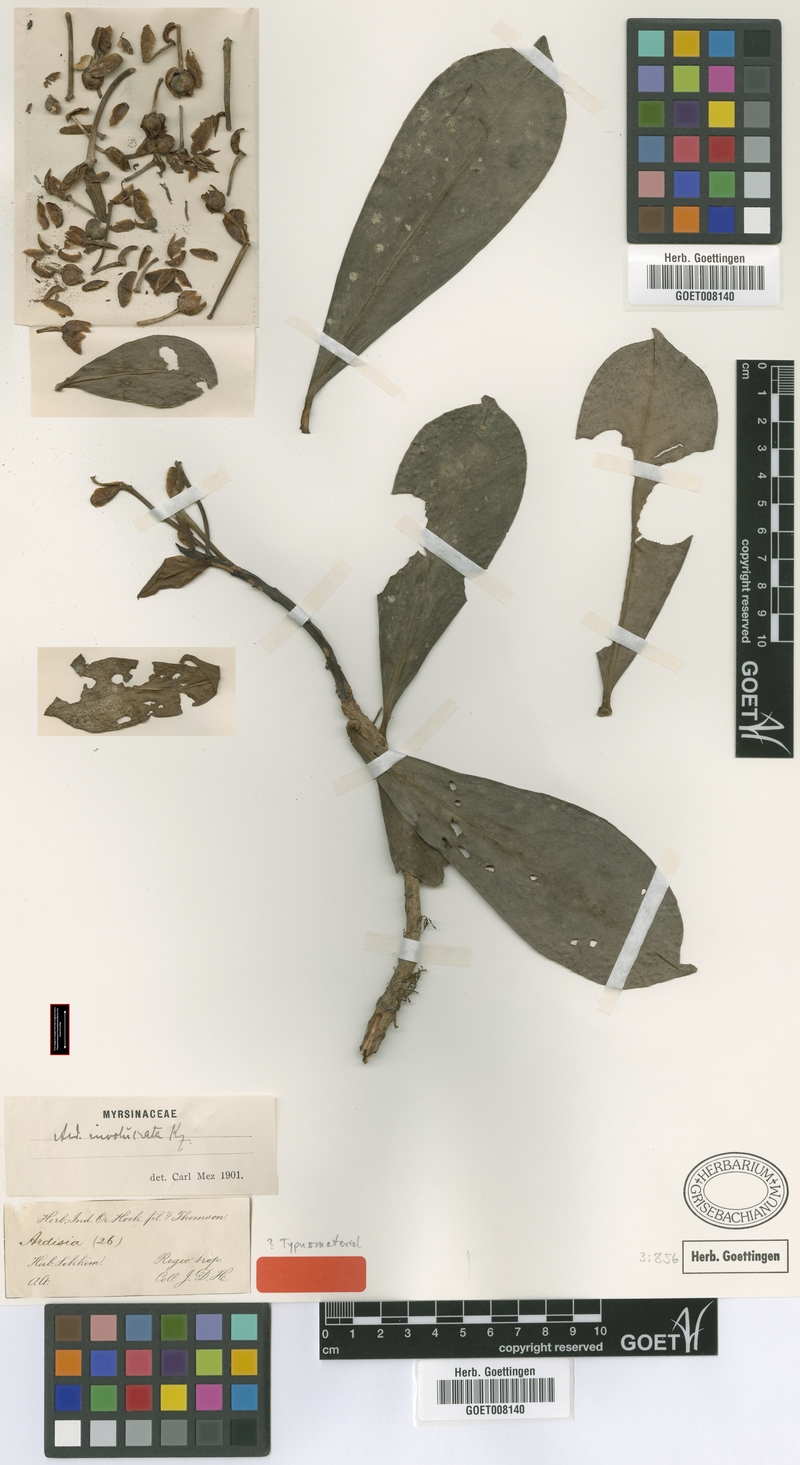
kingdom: Plantae
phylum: Tracheophyta
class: Magnoliopsida
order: Ericales
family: Primulaceae
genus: Ardisia
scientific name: Ardisia involucrata
